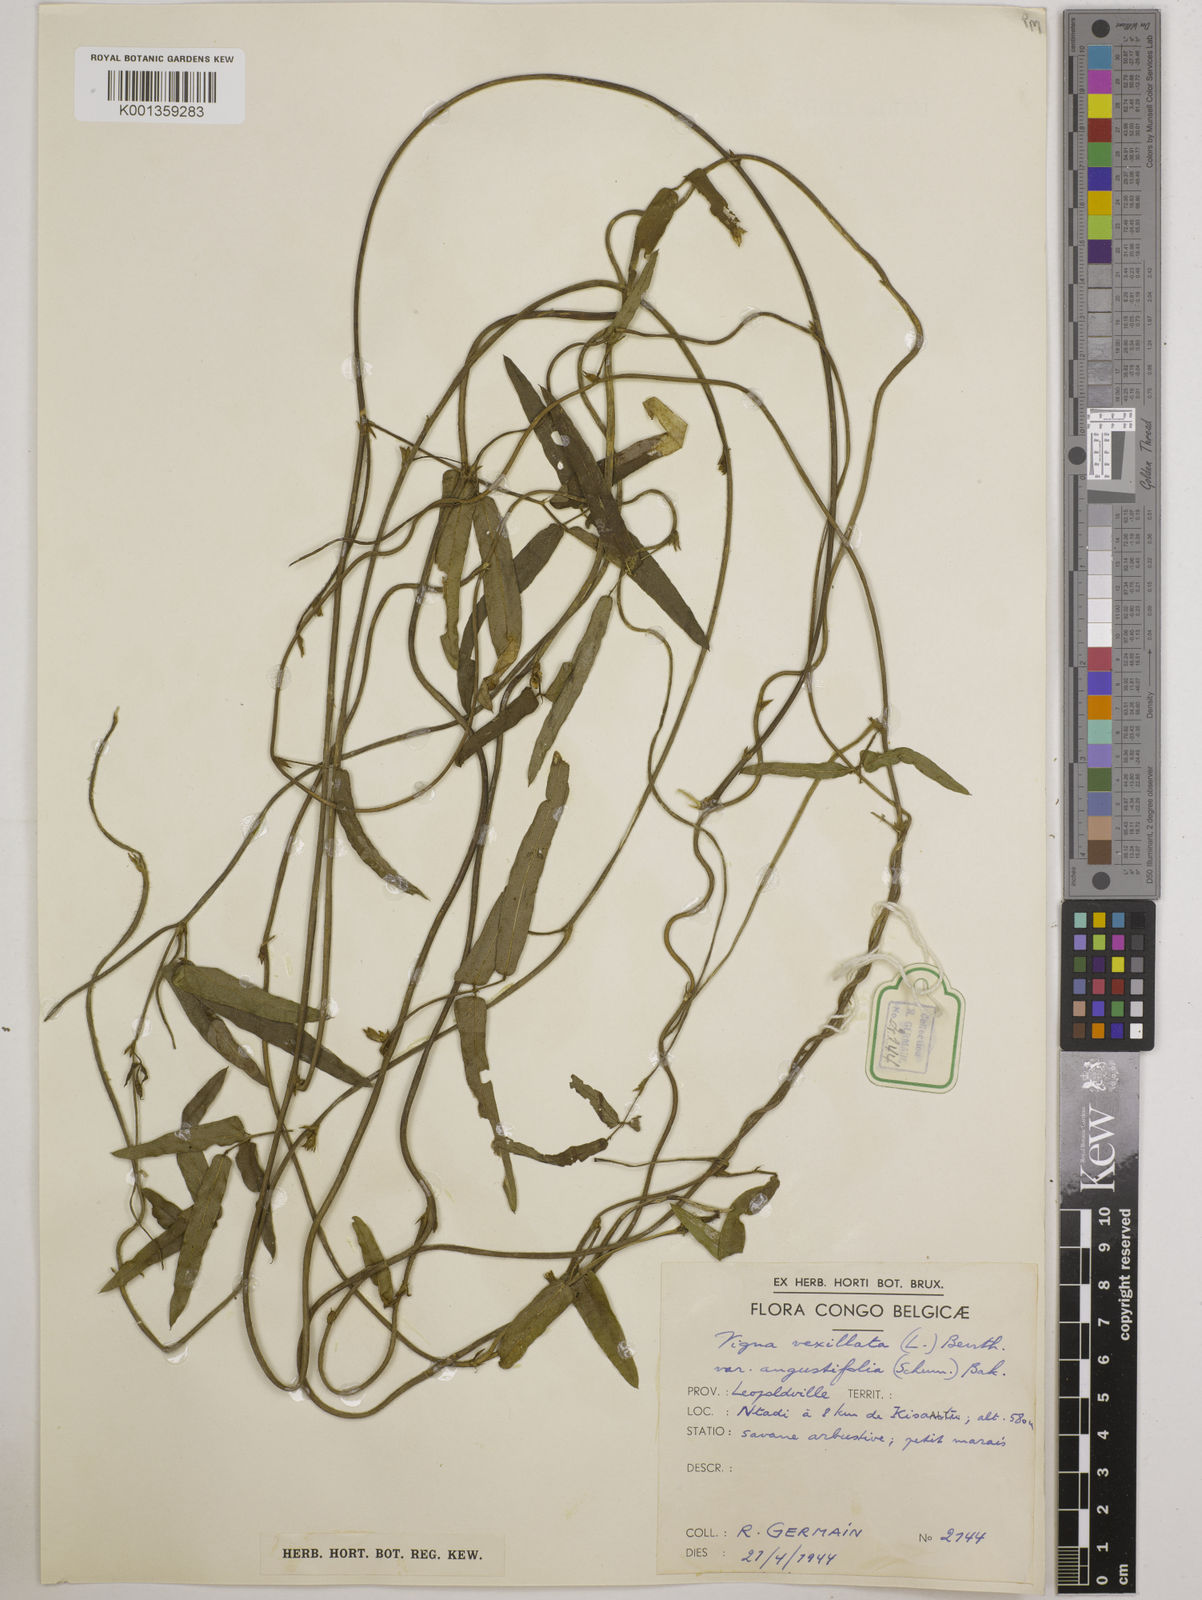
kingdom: Plantae
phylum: Tracheophyta
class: Magnoliopsida
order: Fabales
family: Fabaceae
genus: Vigna
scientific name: Vigna vexillata
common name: Zombi pea
